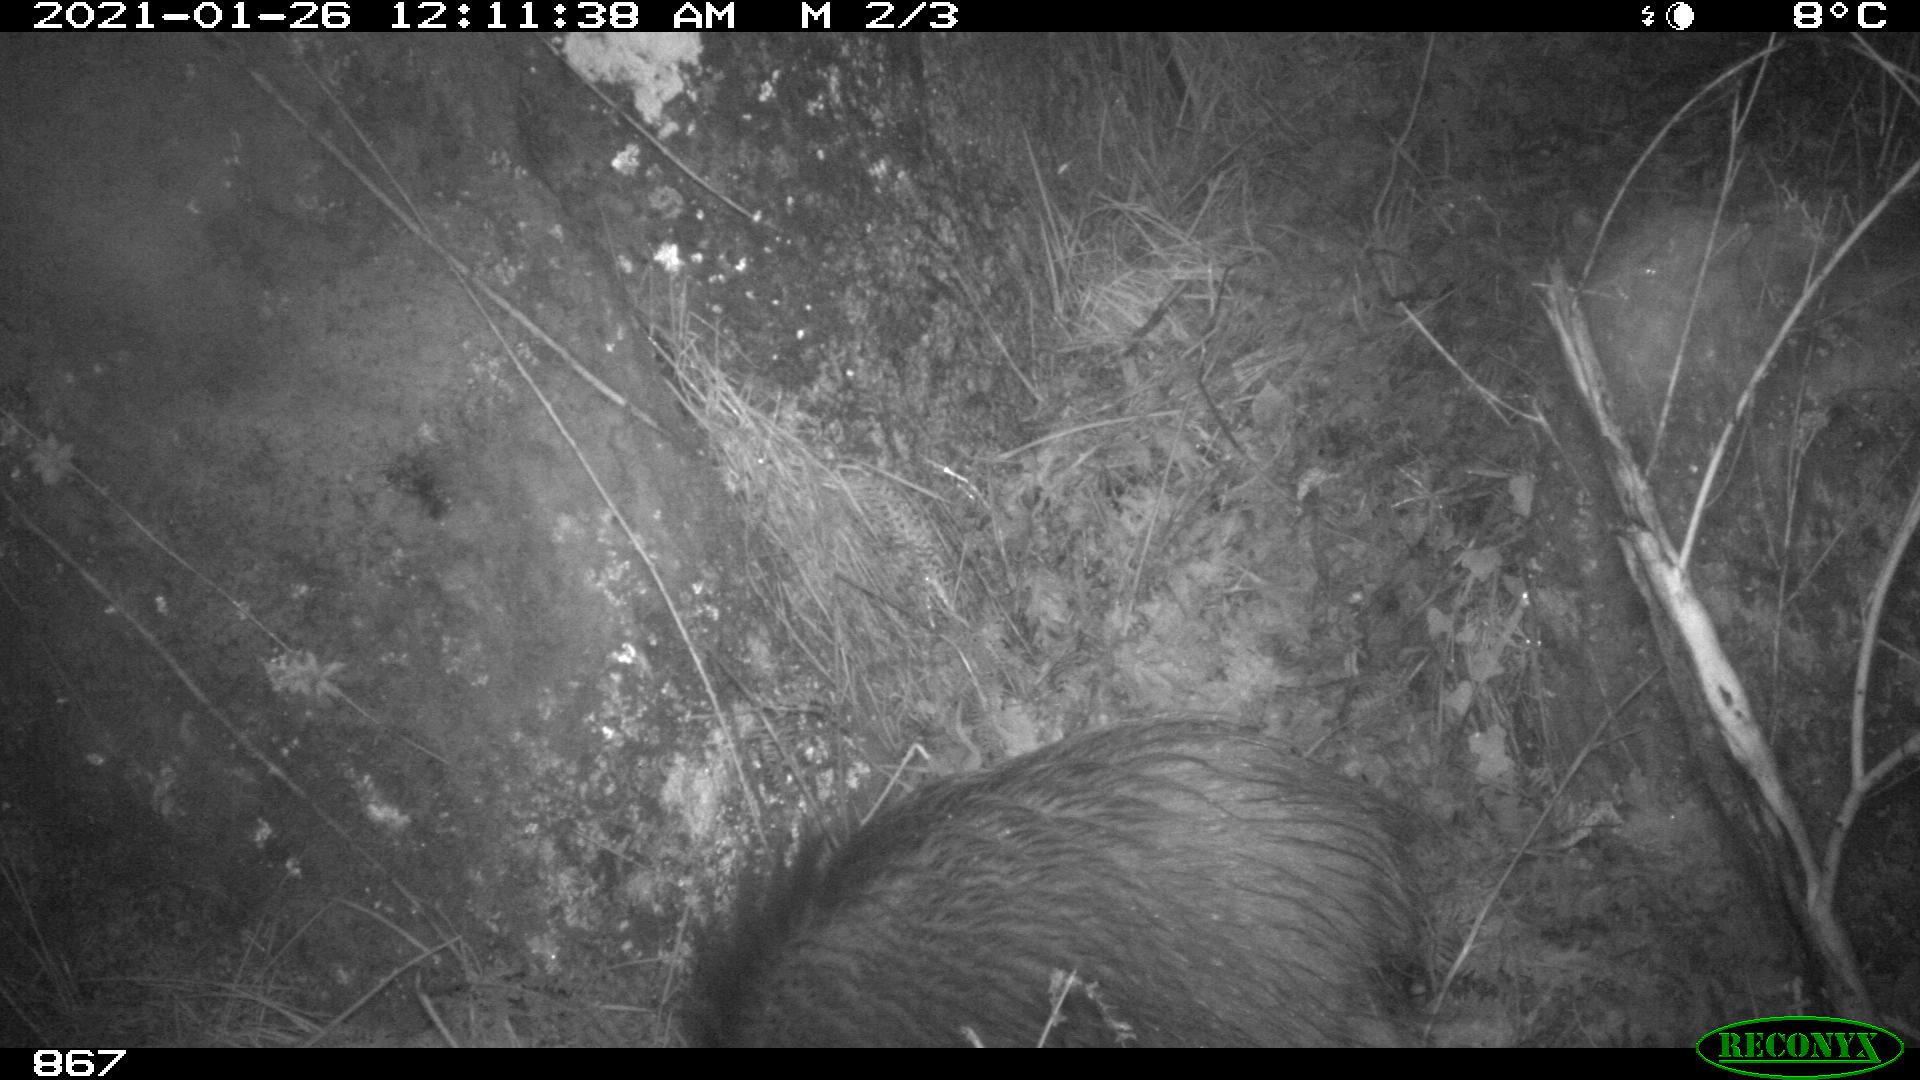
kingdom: Animalia
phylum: Chordata
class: Mammalia
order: Artiodactyla
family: Suidae
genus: Sus
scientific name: Sus scrofa
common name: Wild boar
